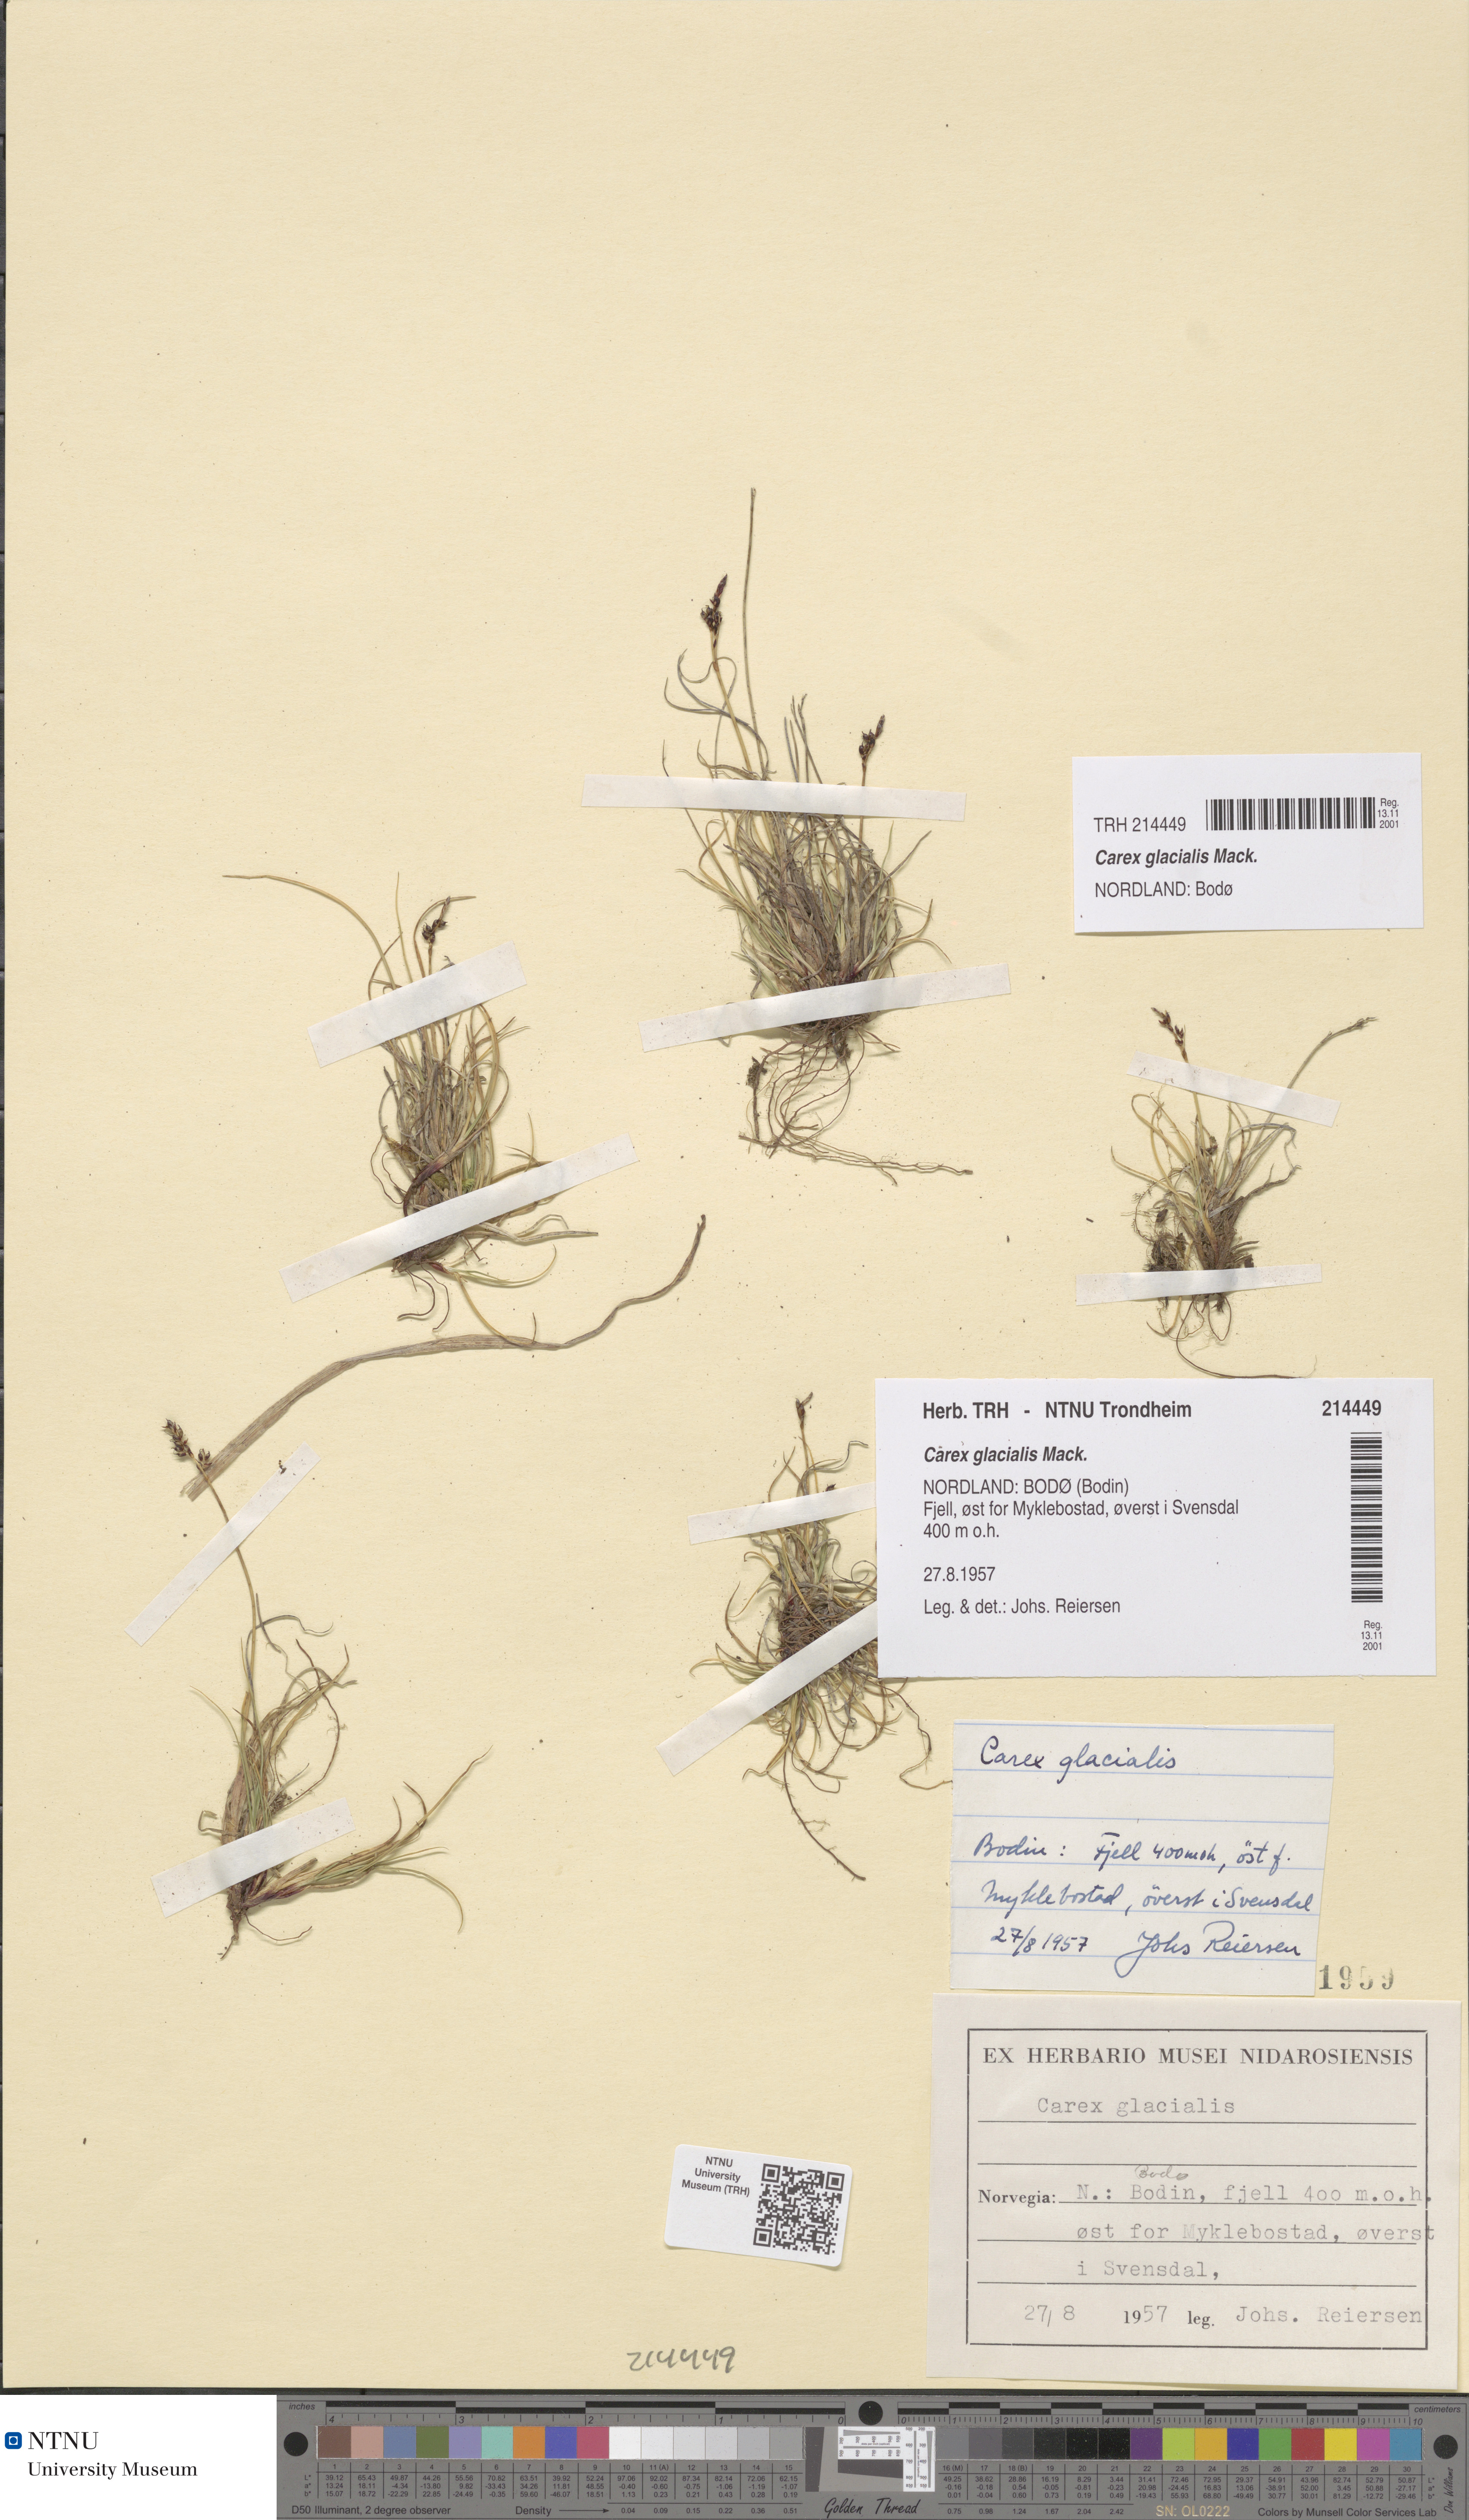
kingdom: Plantae
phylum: Tracheophyta
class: Liliopsida
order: Poales
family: Cyperaceae
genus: Carex
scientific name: Carex glacialis
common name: Newfoundland sedge
